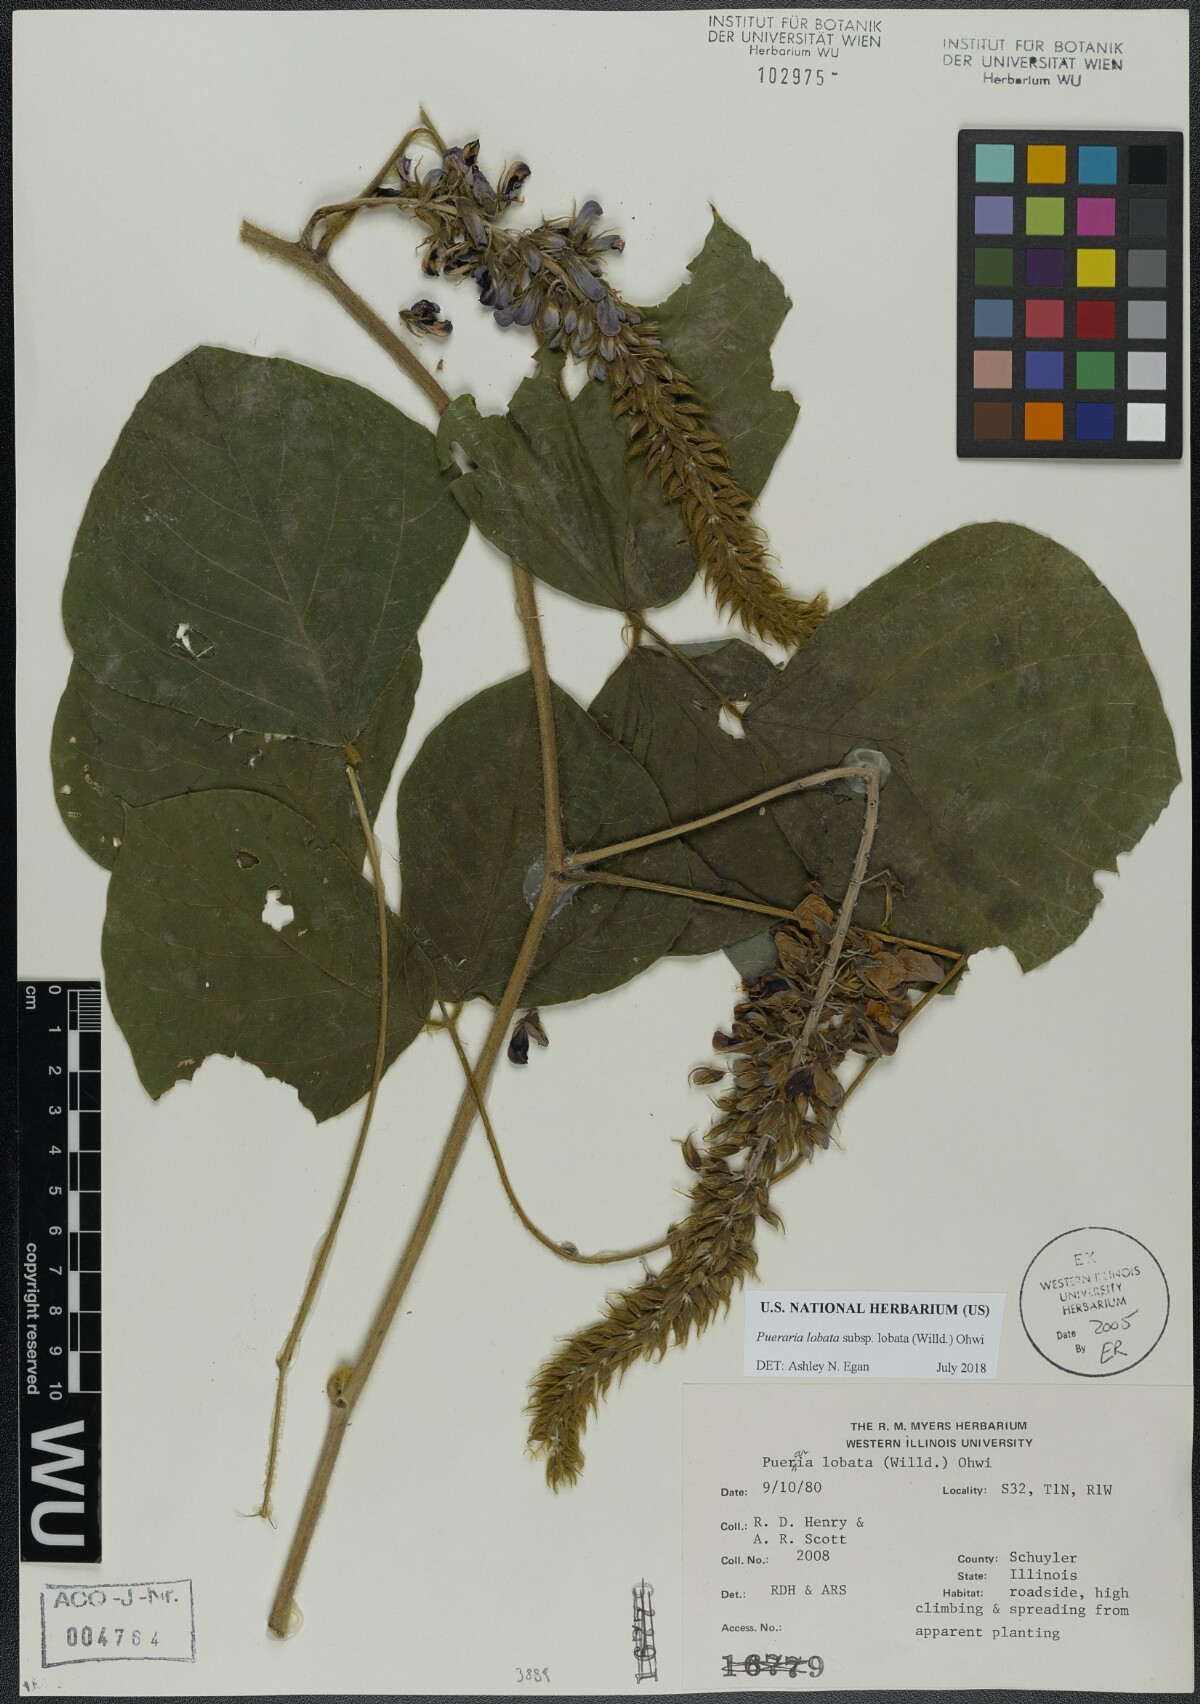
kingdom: Plantae
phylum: Tracheophyta
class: Magnoliopsida
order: Fabales
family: Fabaceae
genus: Pueraria
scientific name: Pueraria montana
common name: Kudzu
